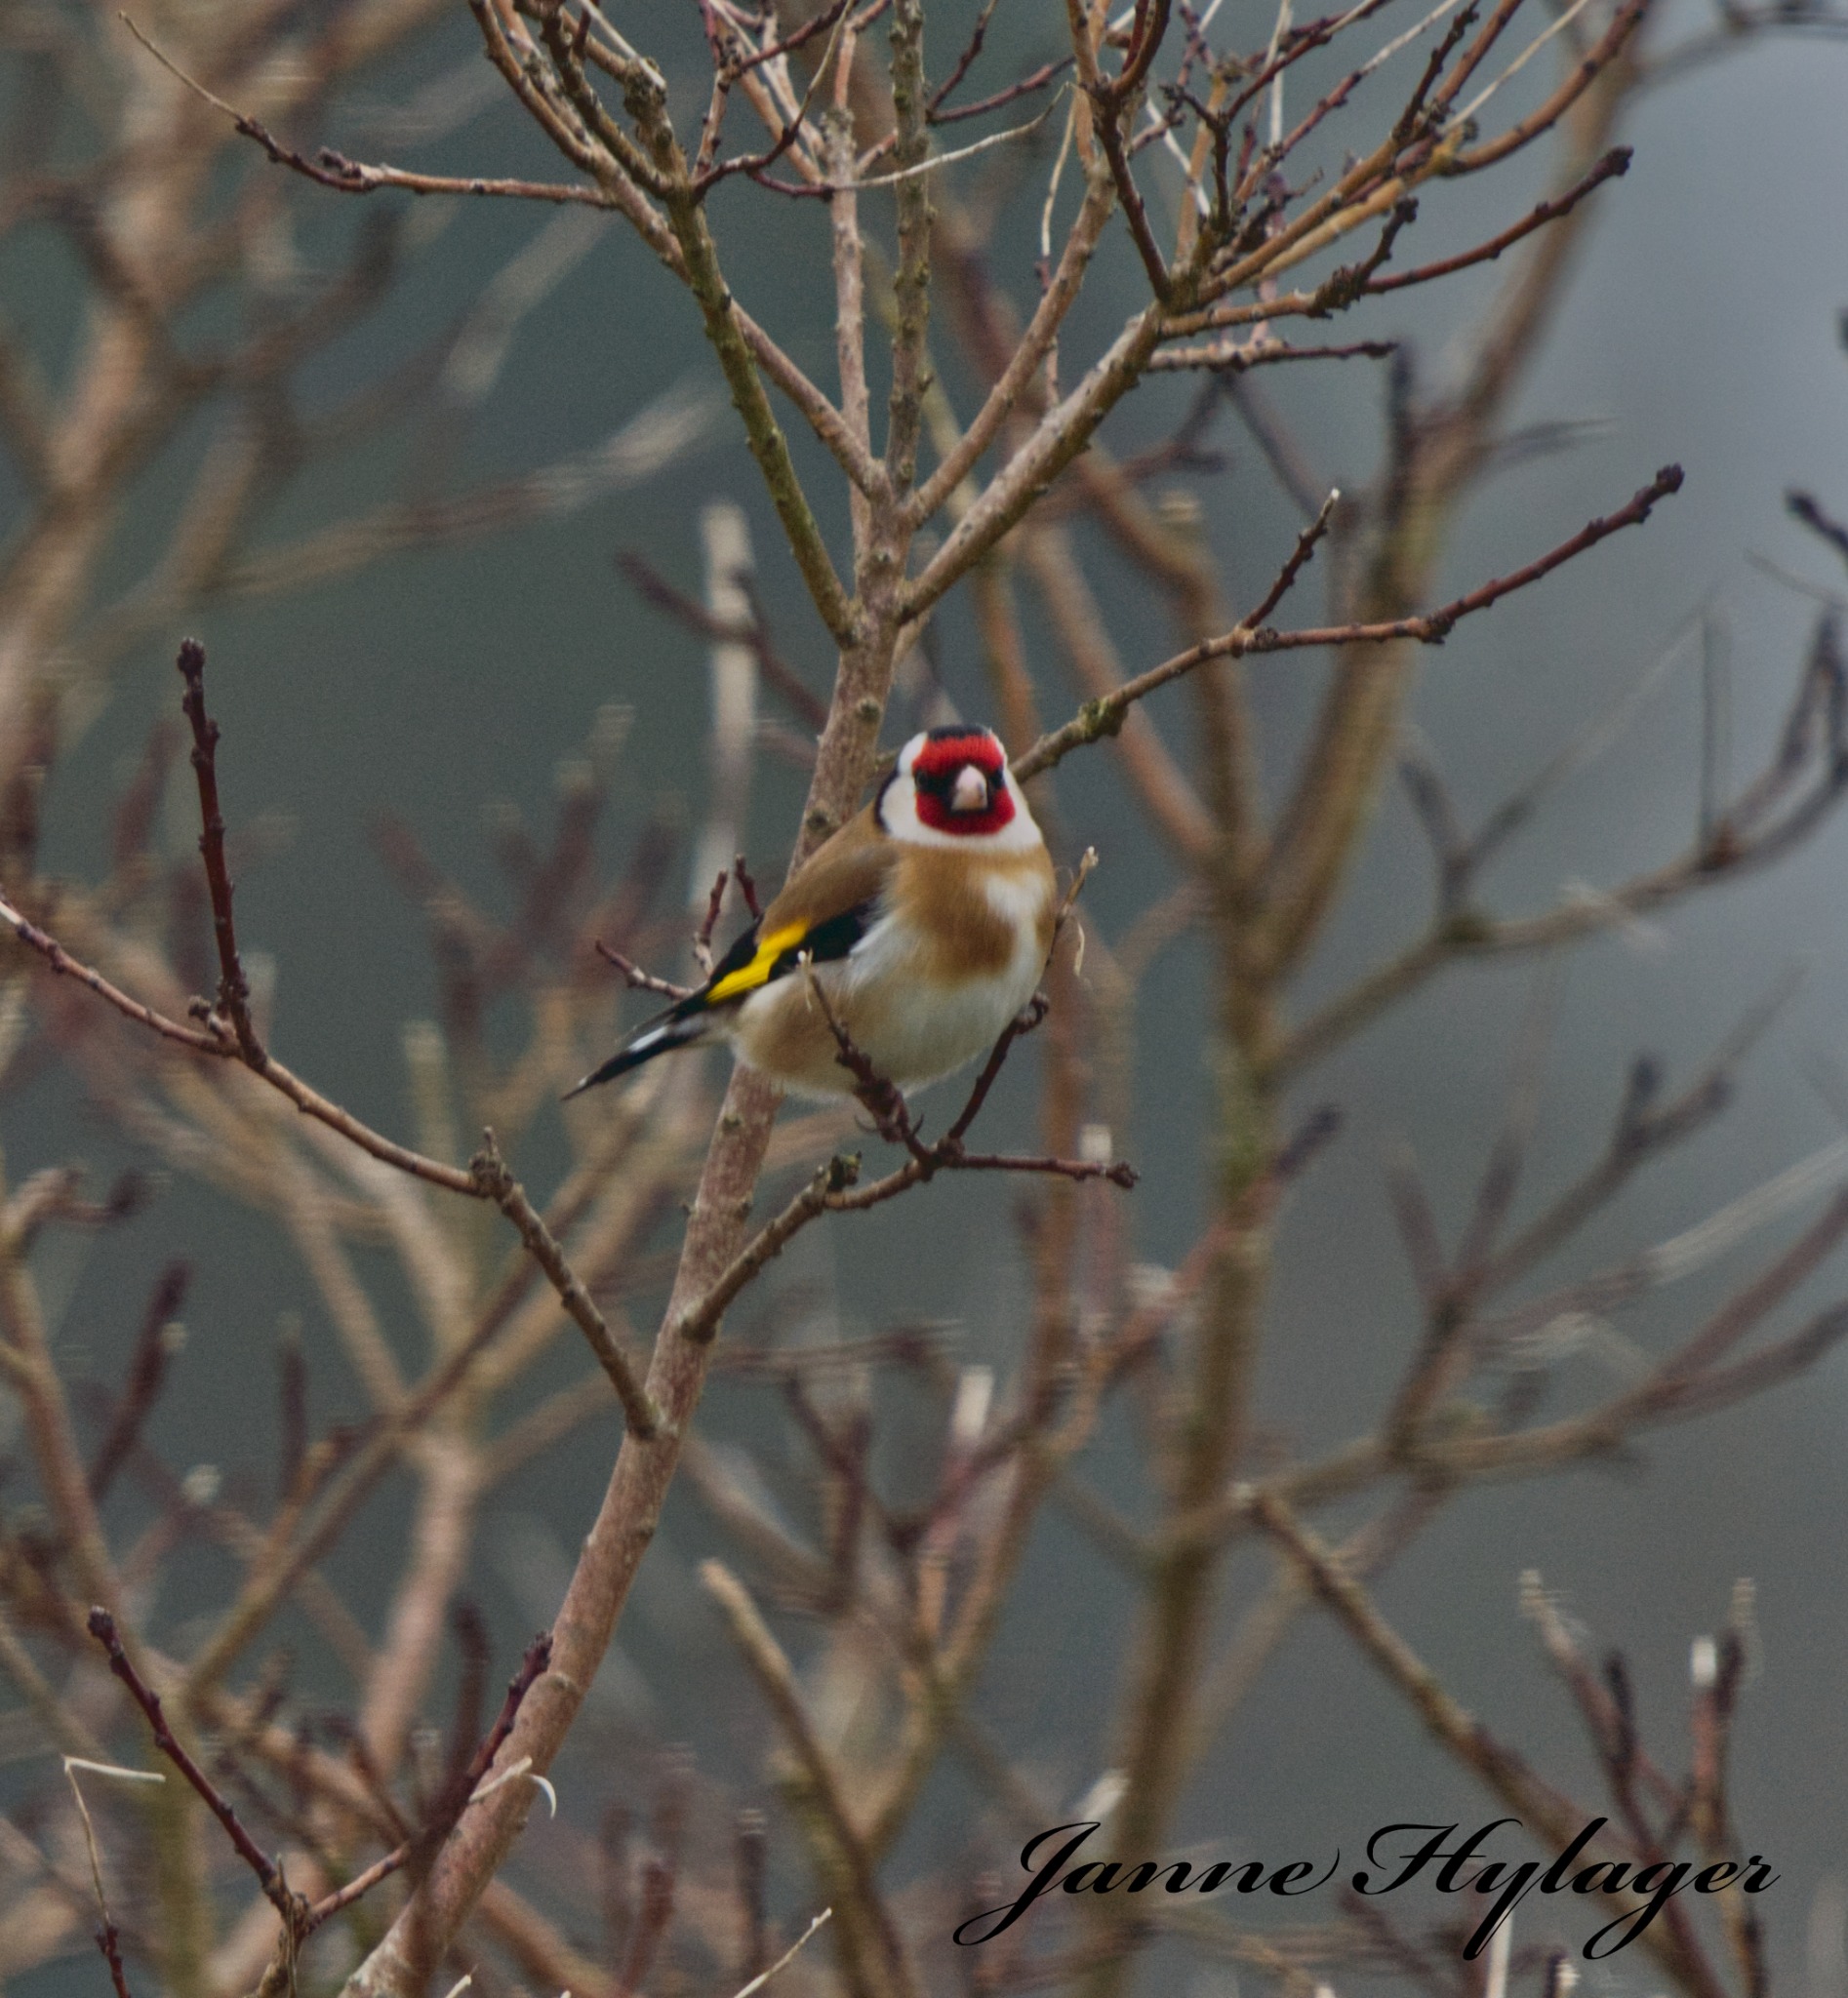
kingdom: Animalia
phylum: Chordata
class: Aves
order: Passeriformes
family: Fringillidae
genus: Carduelis
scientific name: Carduelis carduelis
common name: Stillits
